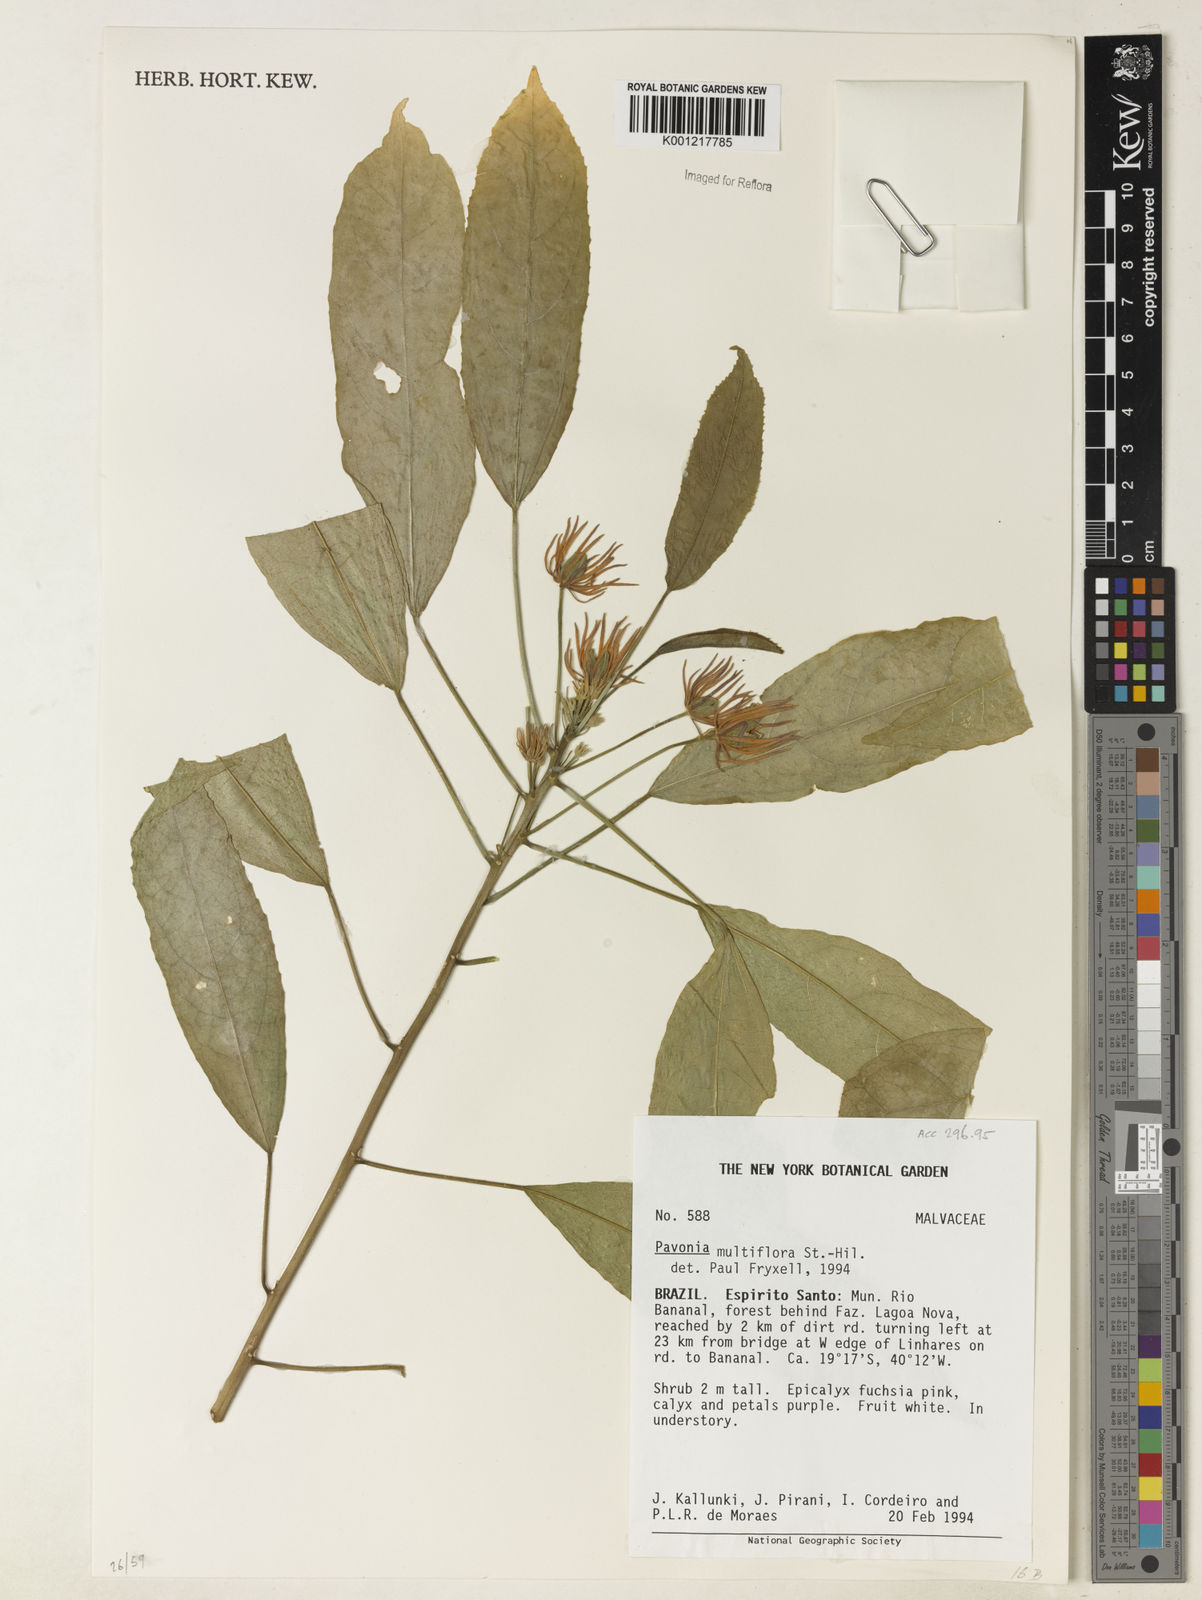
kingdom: Plantae
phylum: Tracheophyta
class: Magnoliopsida
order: Malvales
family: Malvaceae
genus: Pavonia
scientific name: Pavonia multiflora
